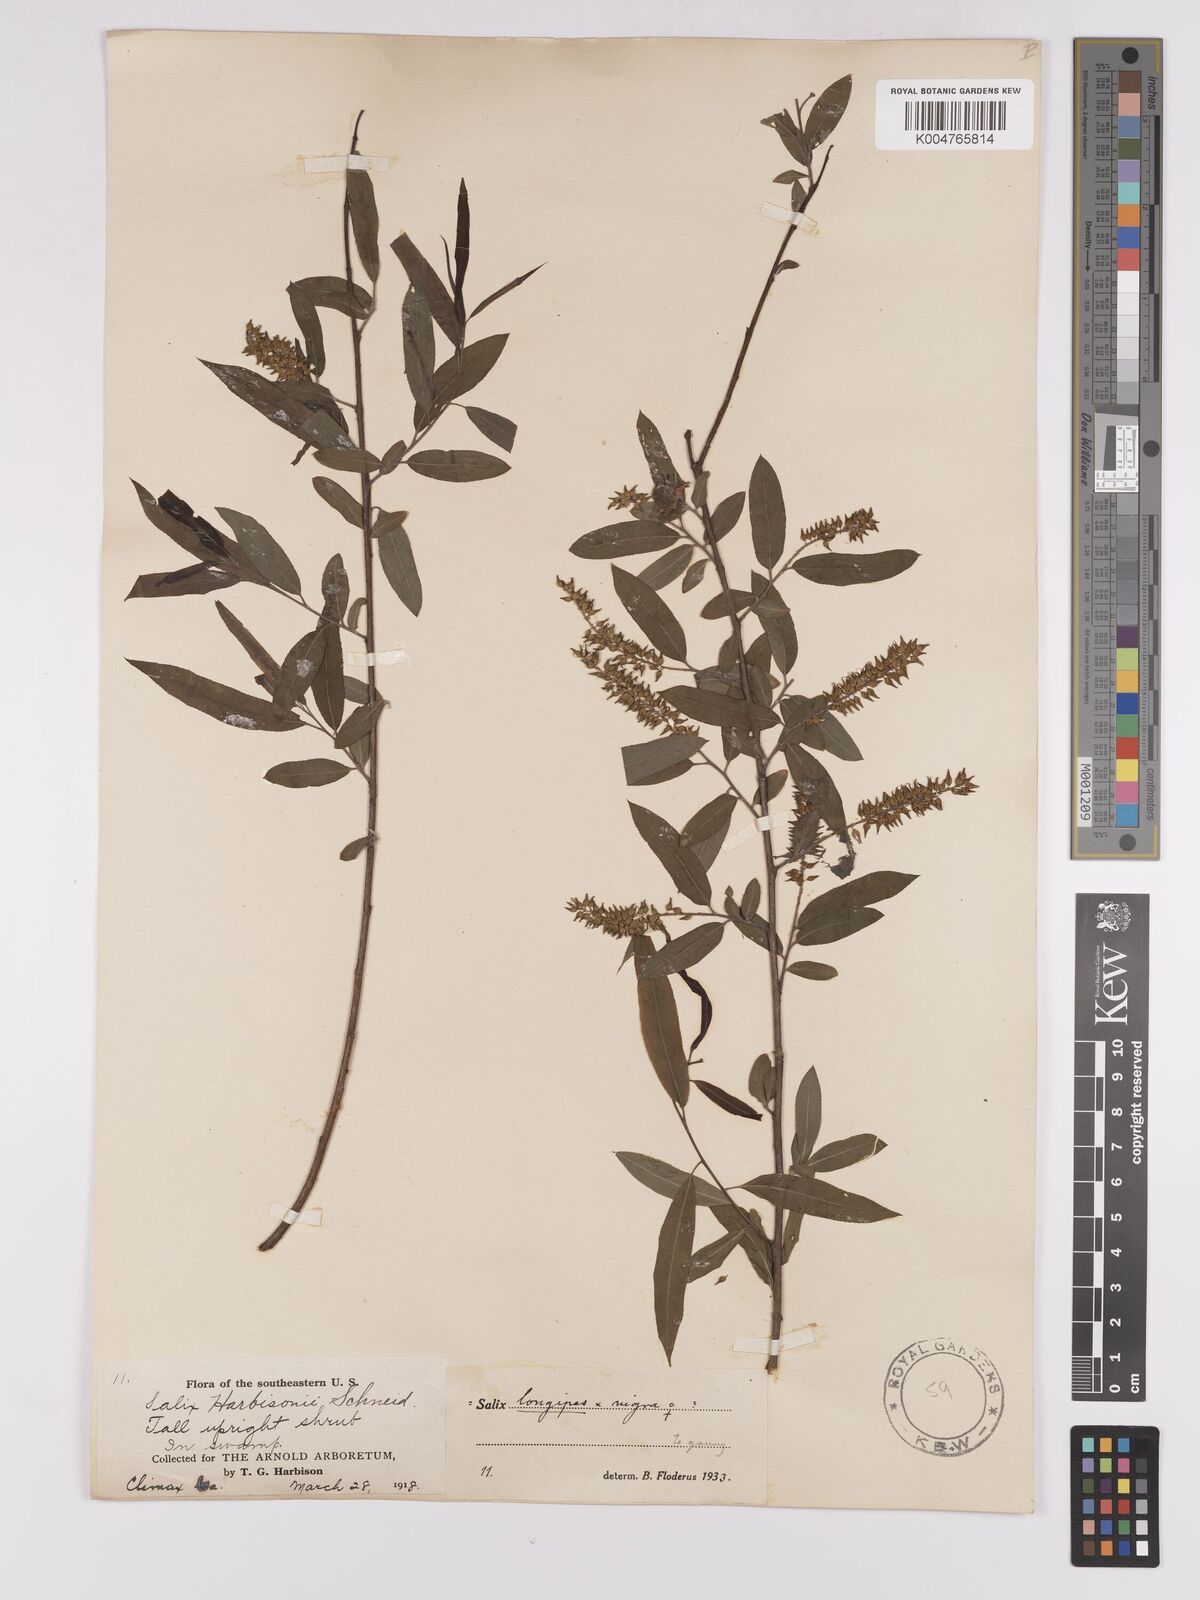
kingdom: Plantae
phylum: Tracheophyta
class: Magnoliopsida
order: Malpighiales
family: Salicaceae
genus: Salix
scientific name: Salix fruticulosa
